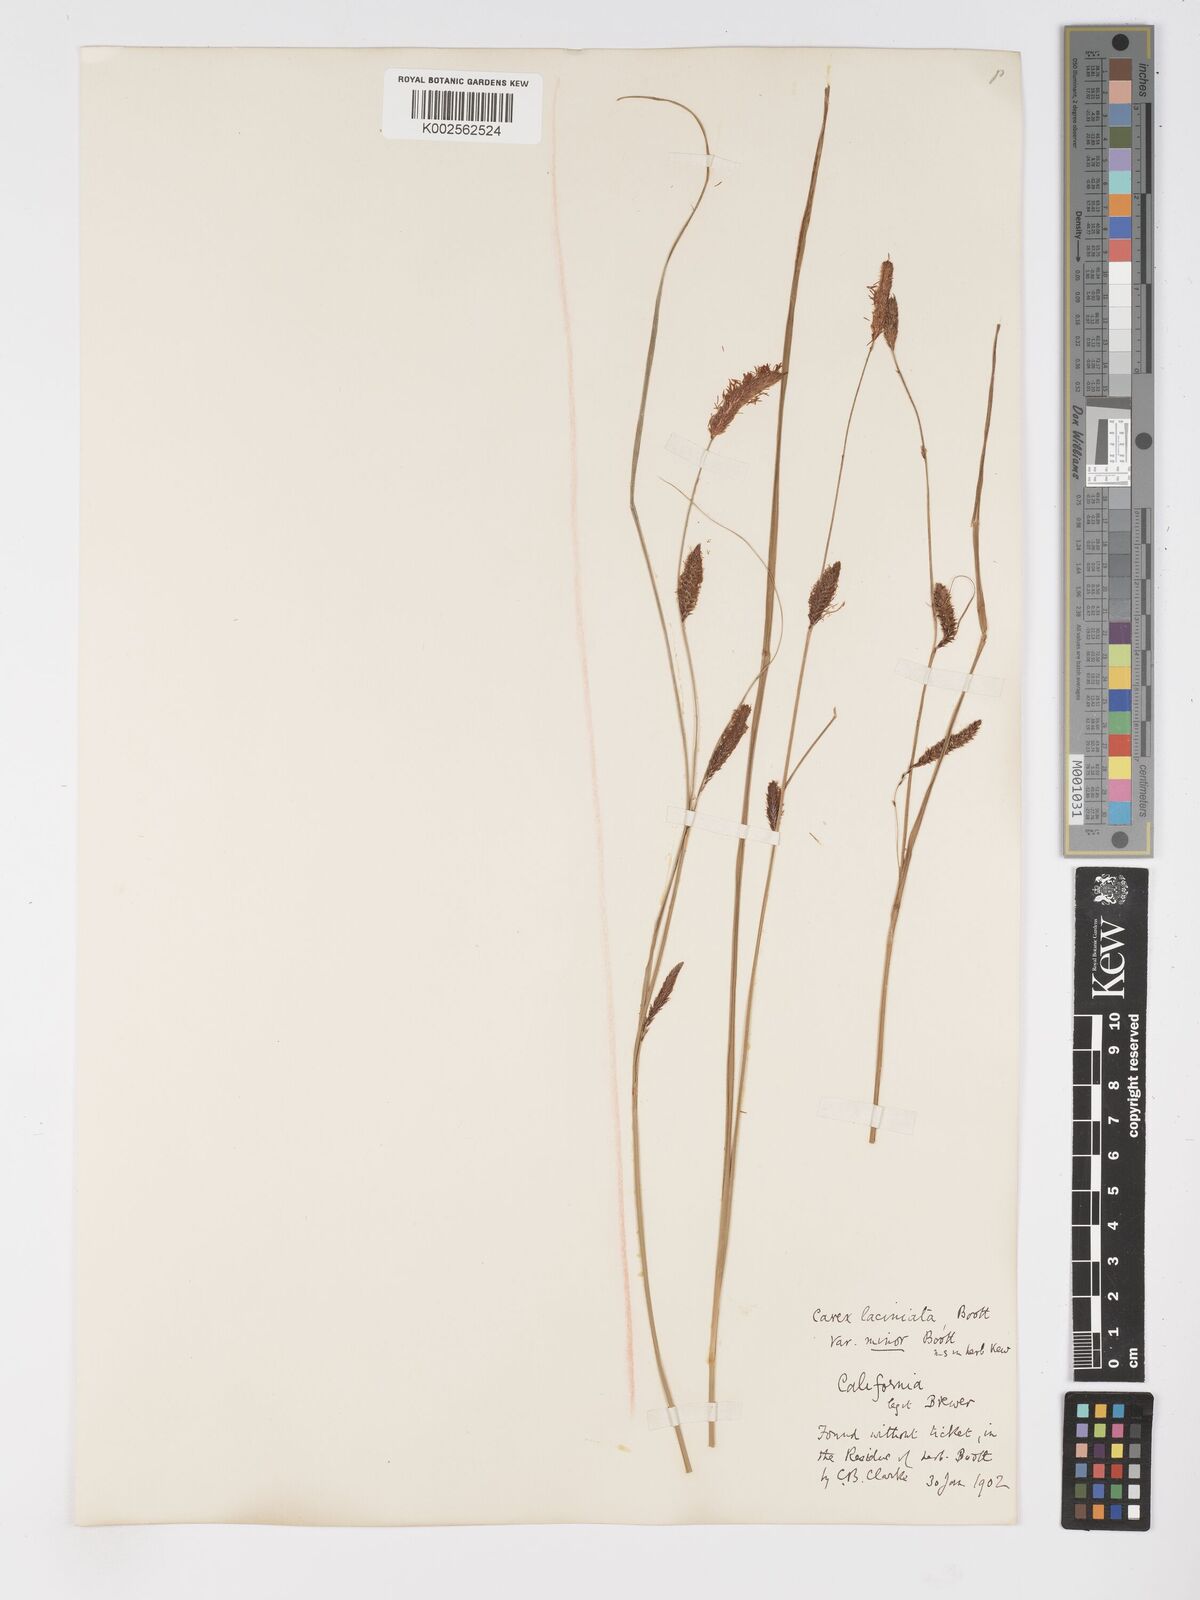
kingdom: Plantae
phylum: Tracheophyta
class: Liliopsida
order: Poales
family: Cyperaceae
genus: Carex
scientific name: Carex barbarae
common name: Santa barbara sedge
